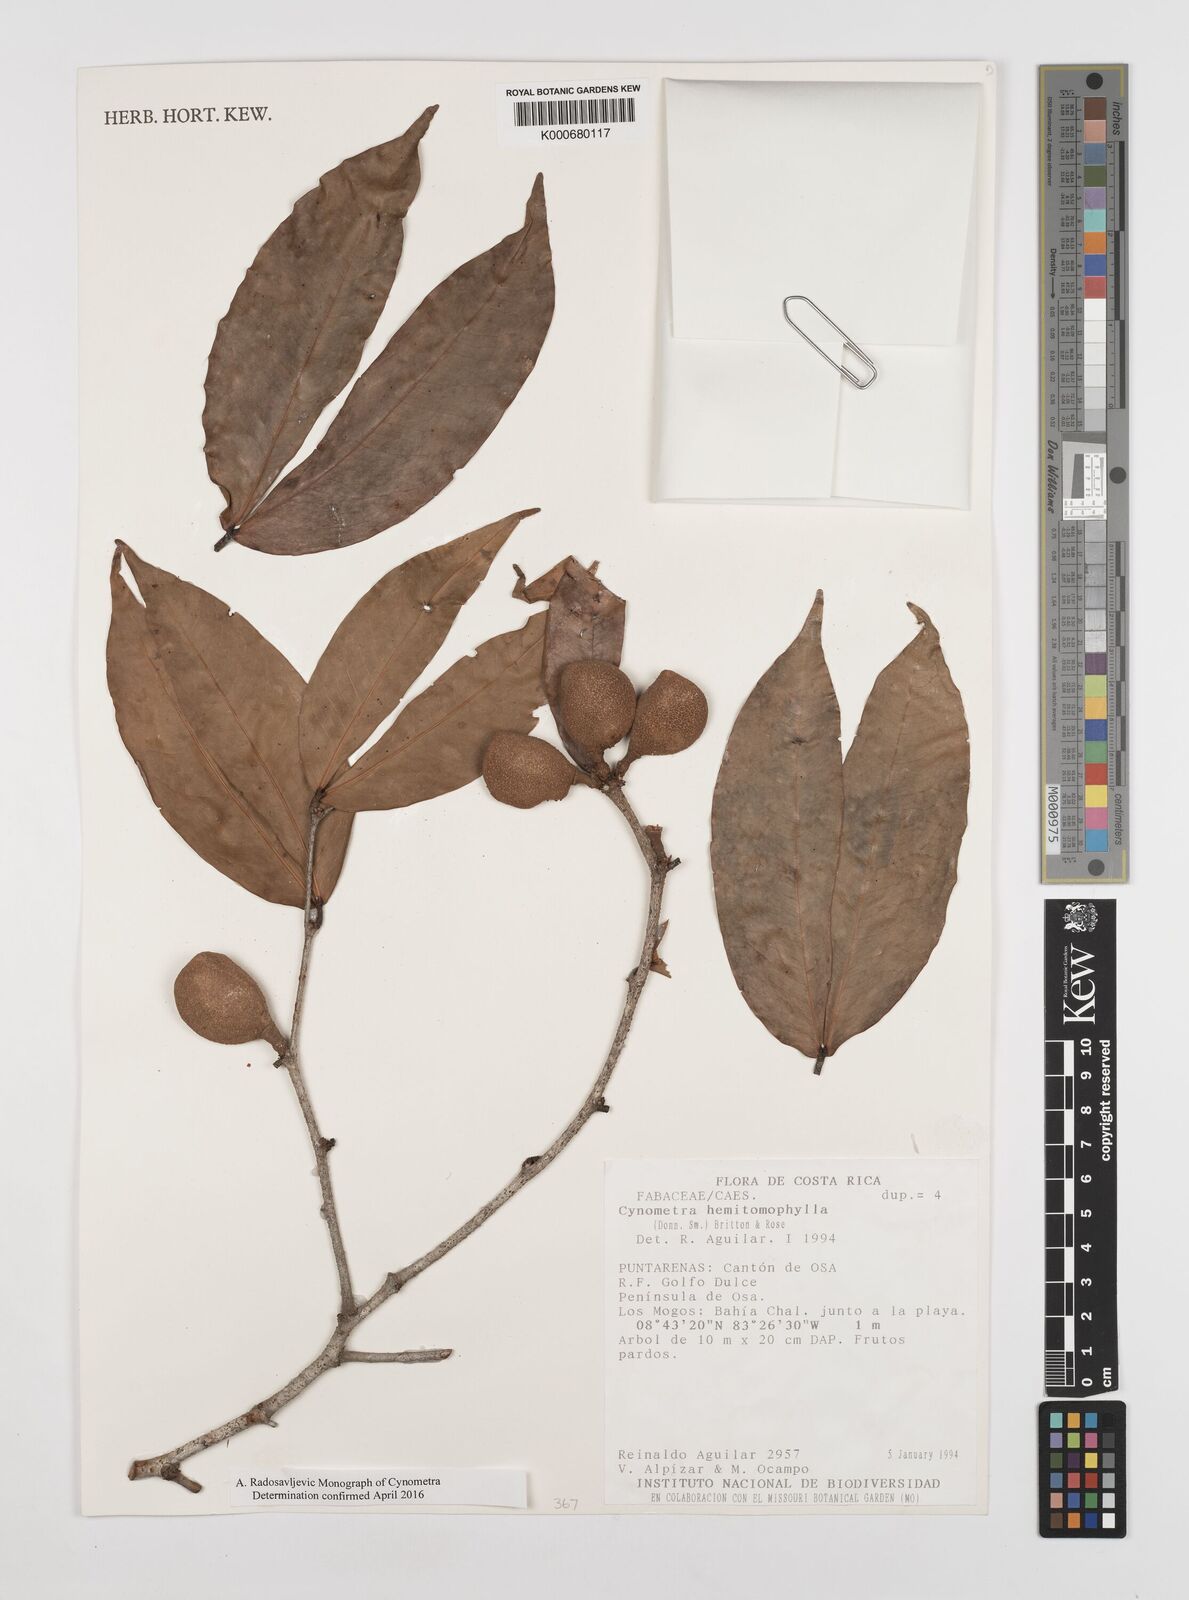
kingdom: Plantae
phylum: Tracheophyta
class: Magnoliopsida
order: Fabales
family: Fabaceae
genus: Cynometra
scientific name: Cynometra hemitomophylla
